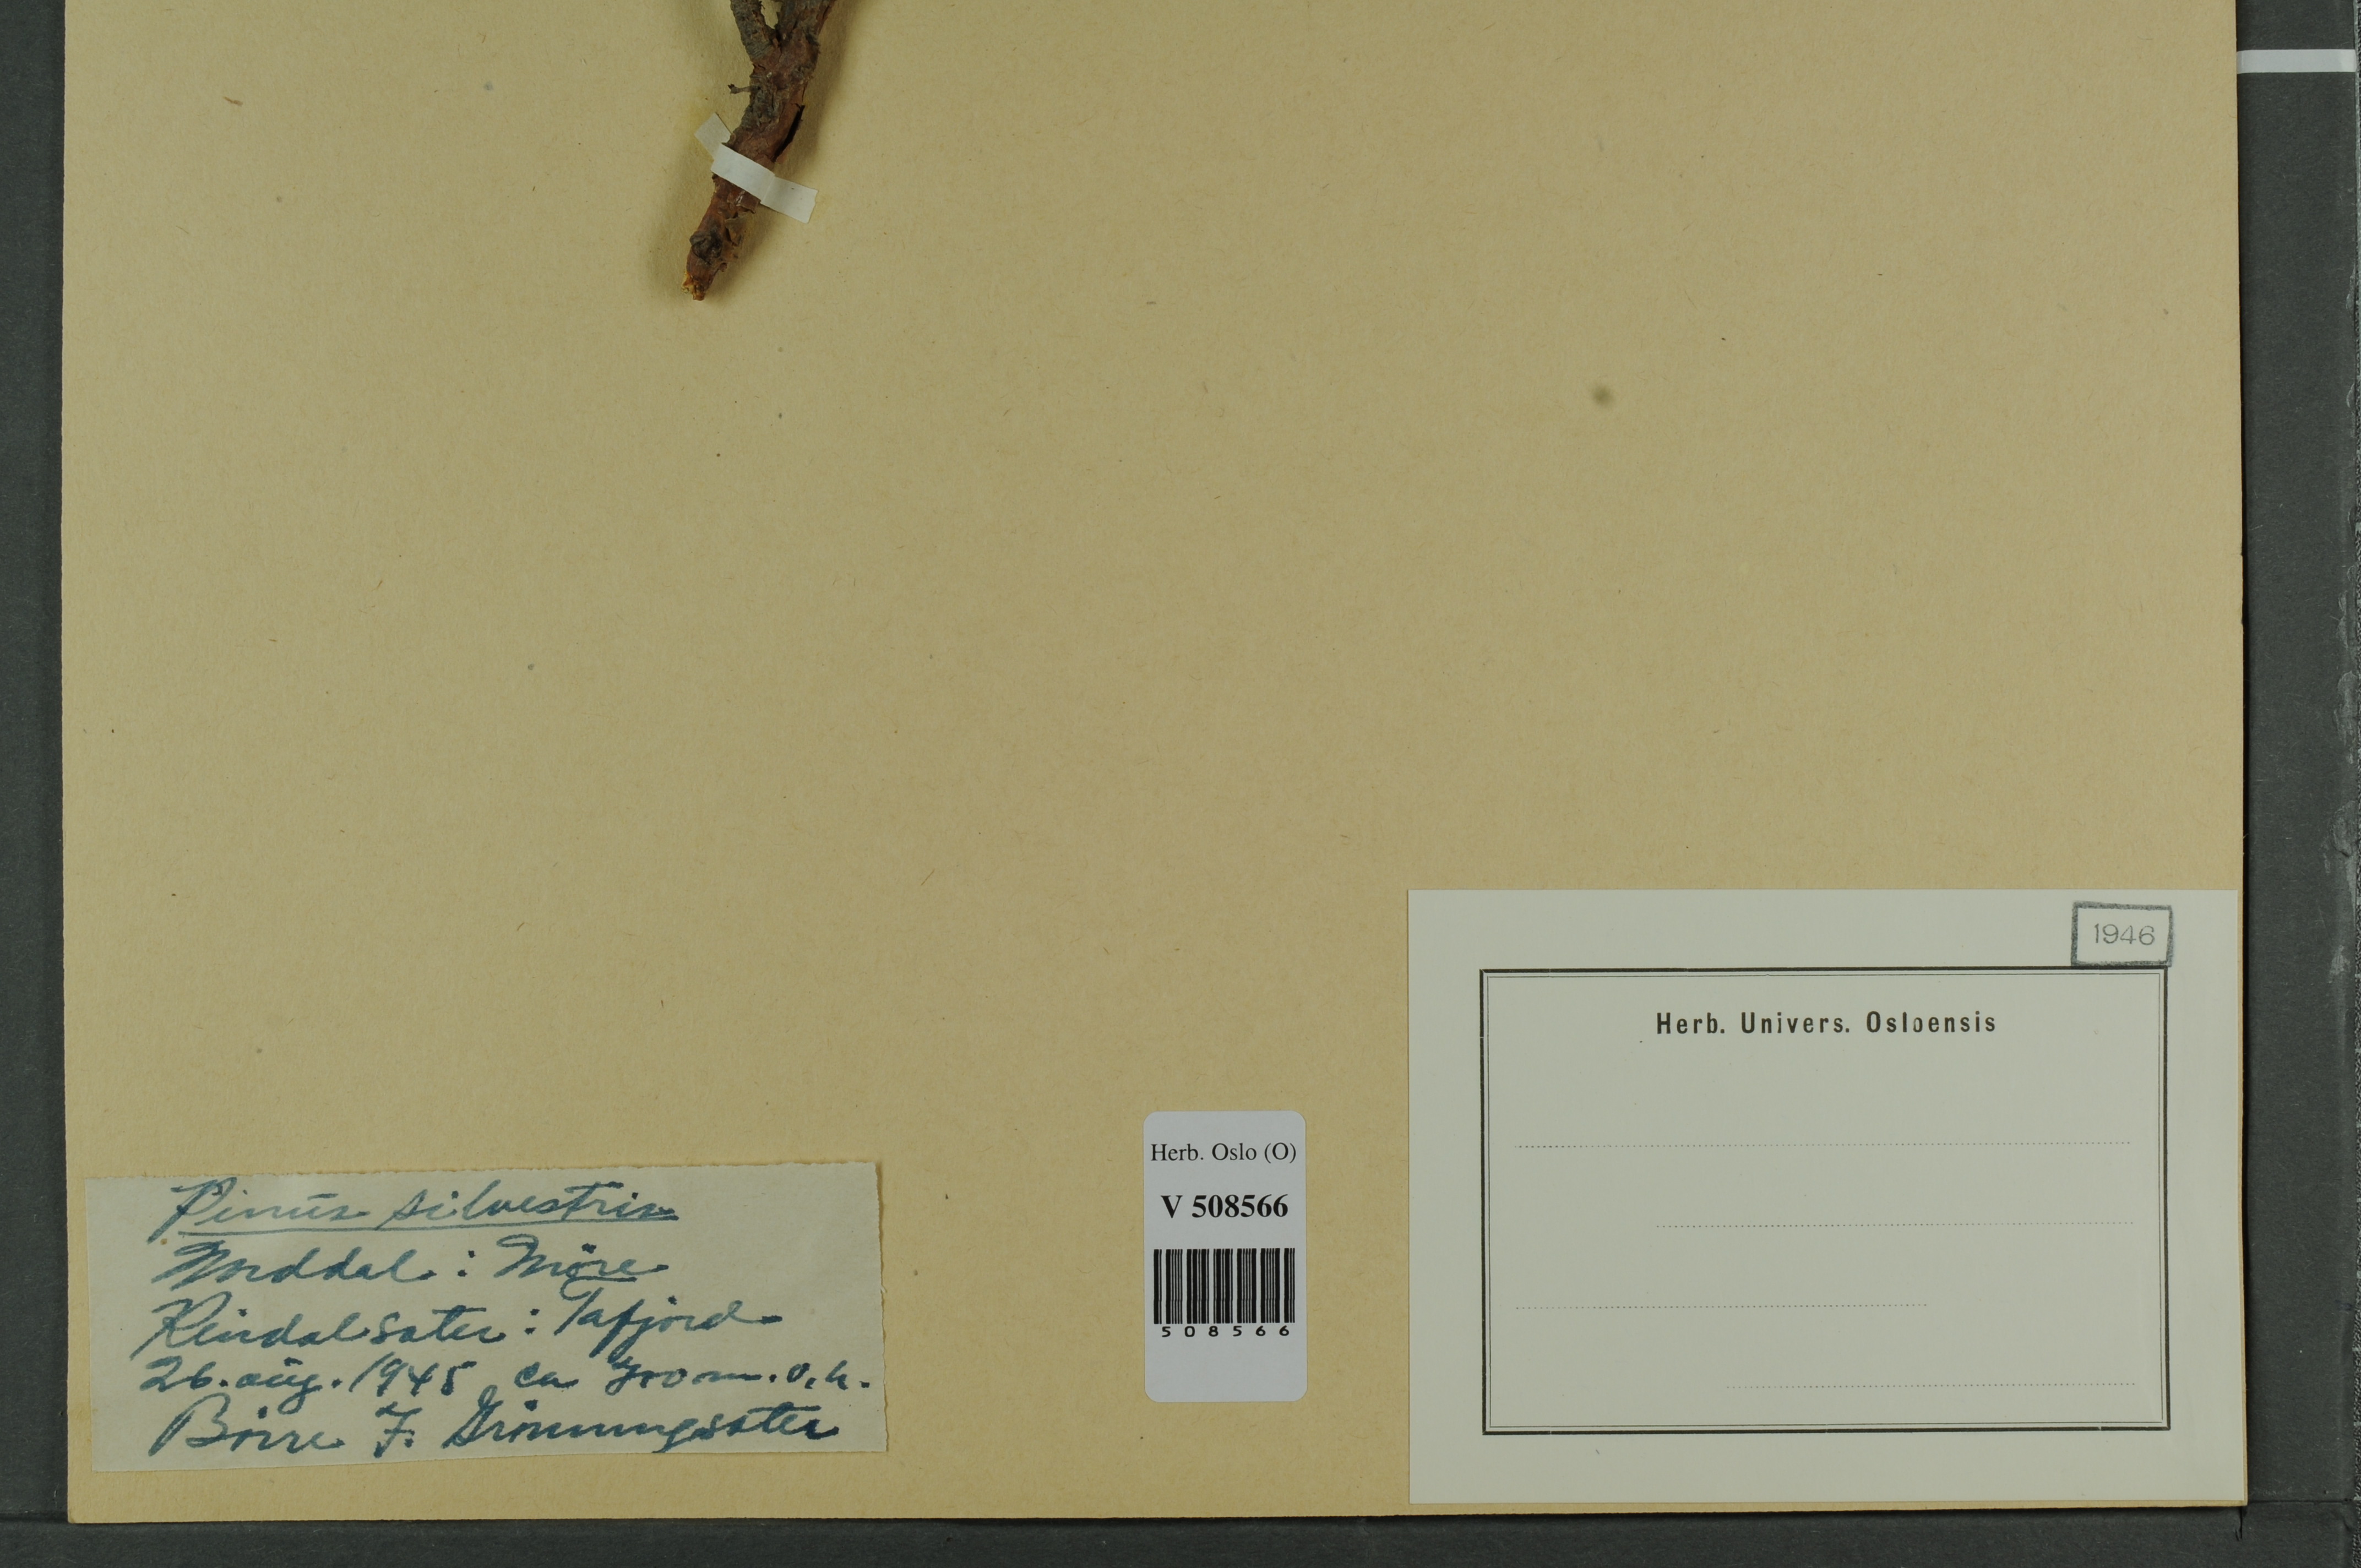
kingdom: Plantae
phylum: Tracheophyta
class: Pinopsida
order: Pinales
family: Pinaceae
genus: Pinus
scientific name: Pinus sylvestris
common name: Scots pine
